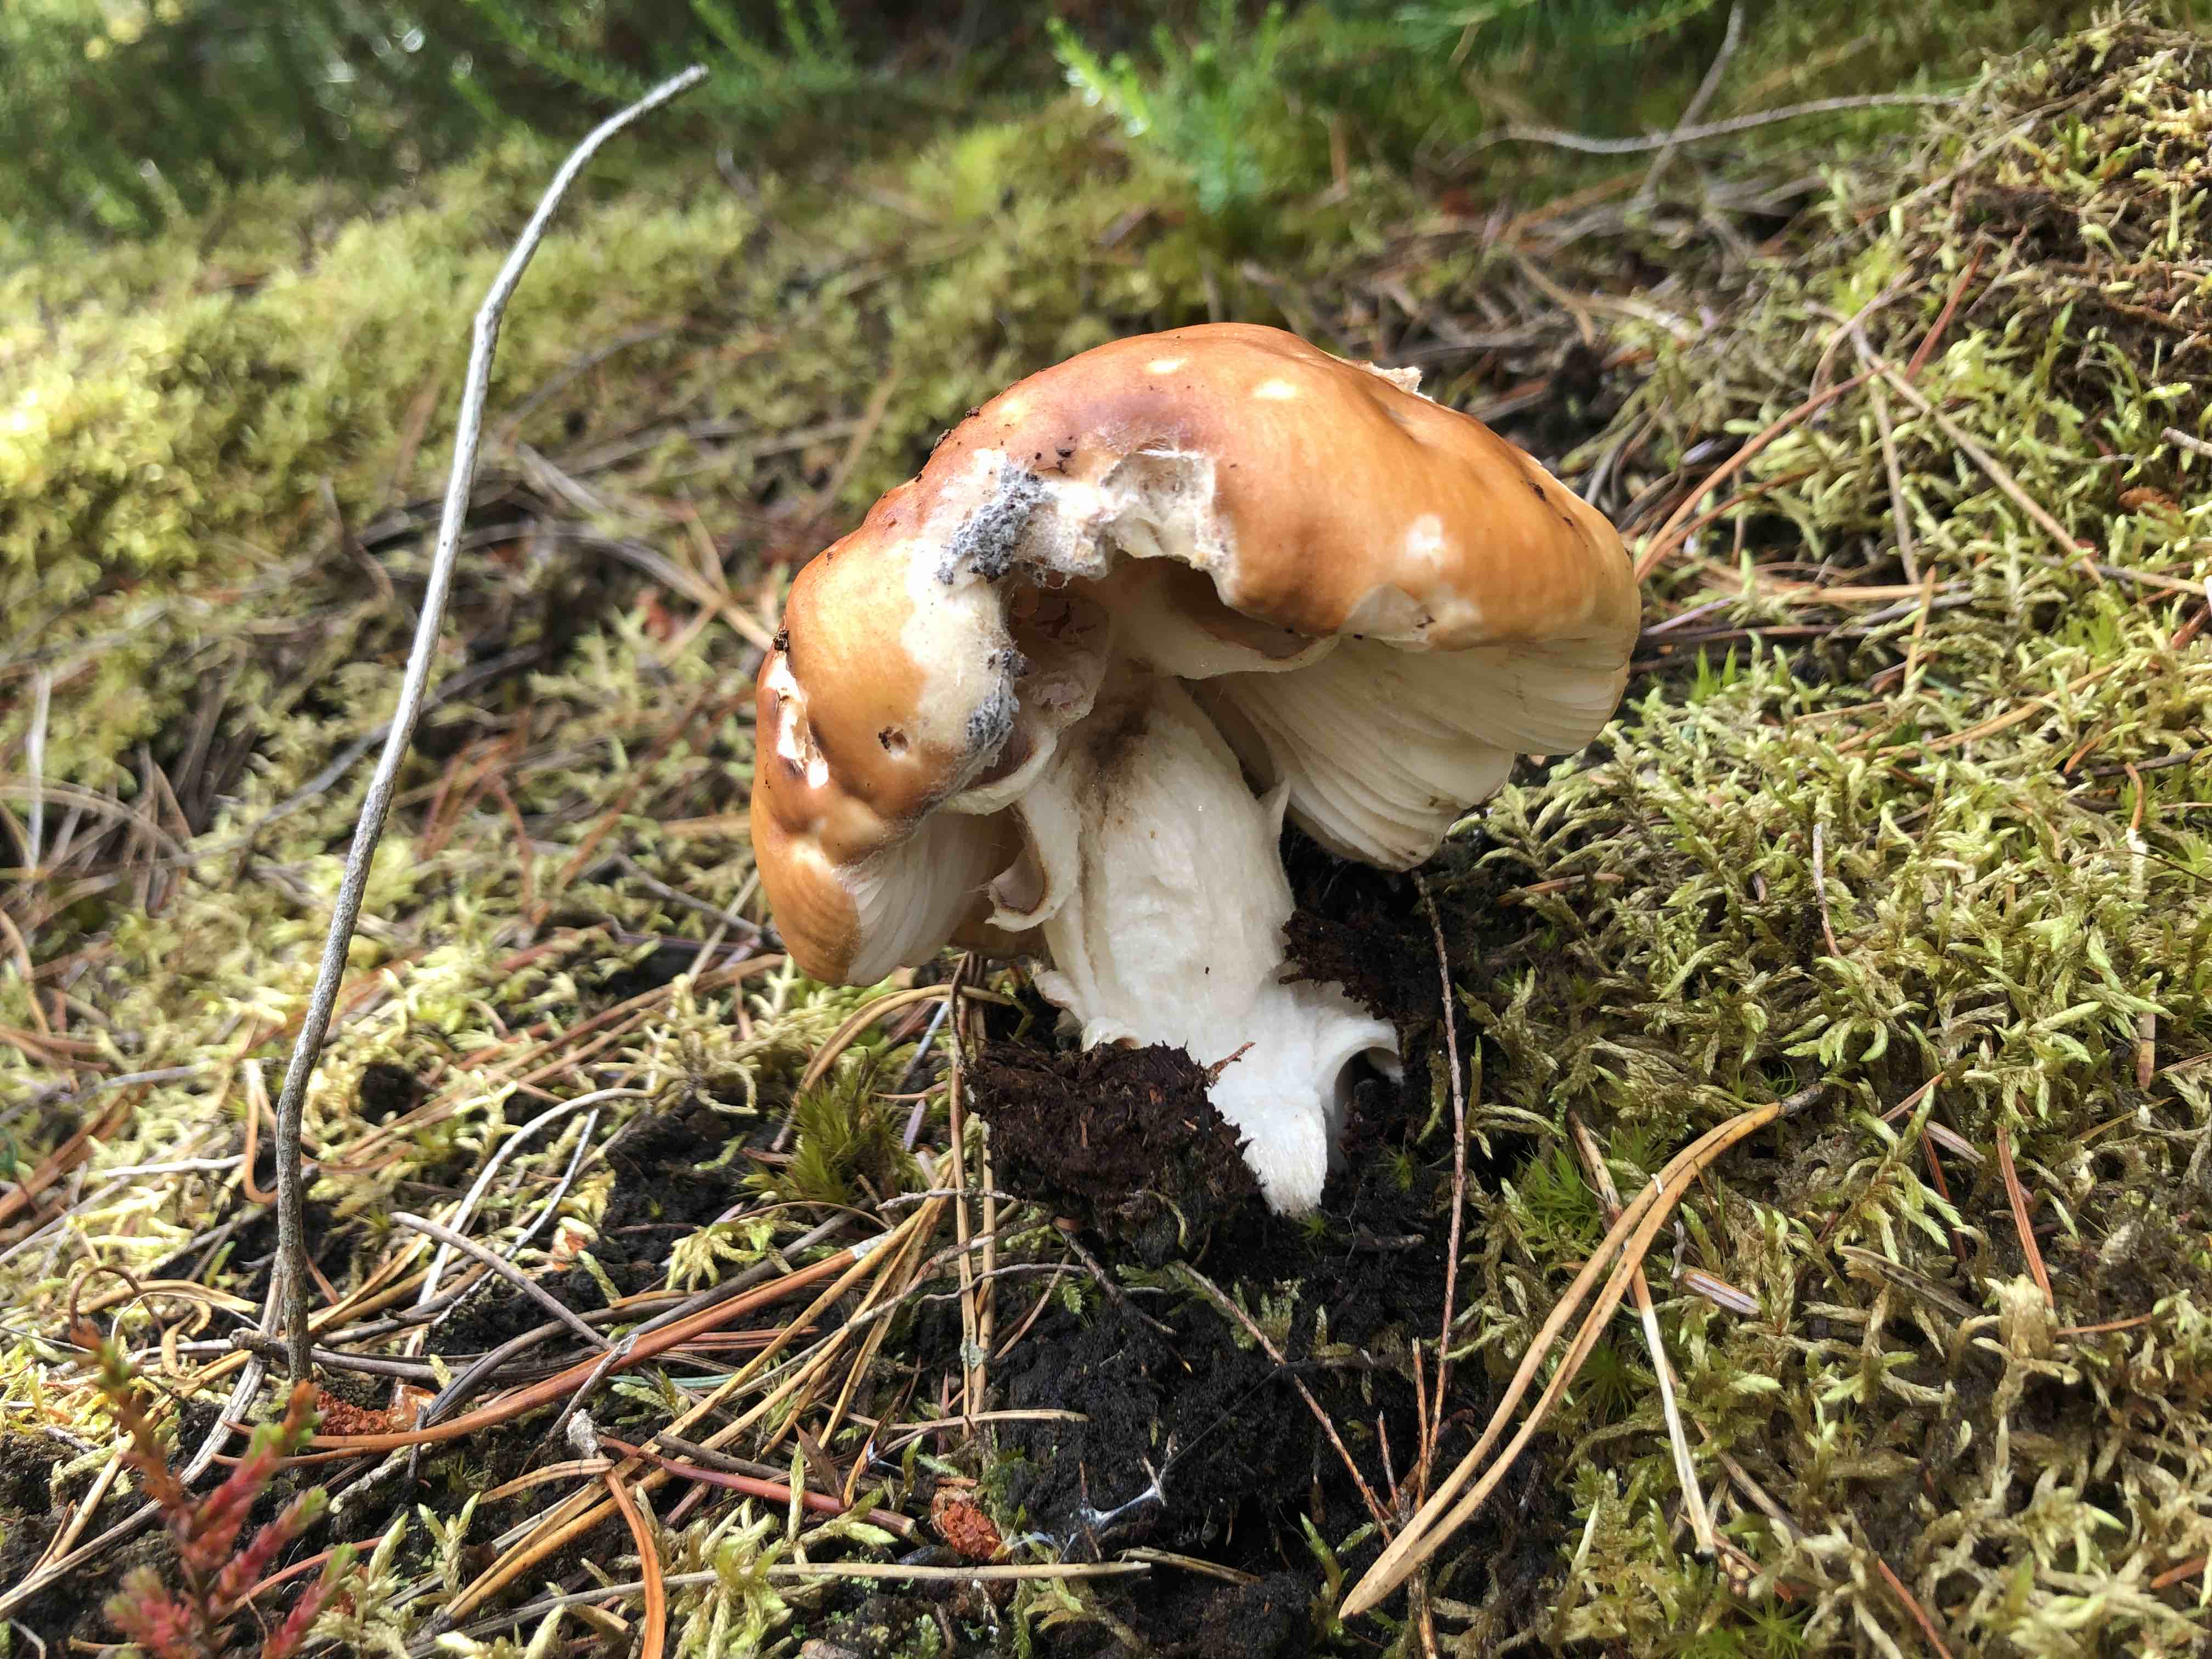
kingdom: Fungi
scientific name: Fungi
